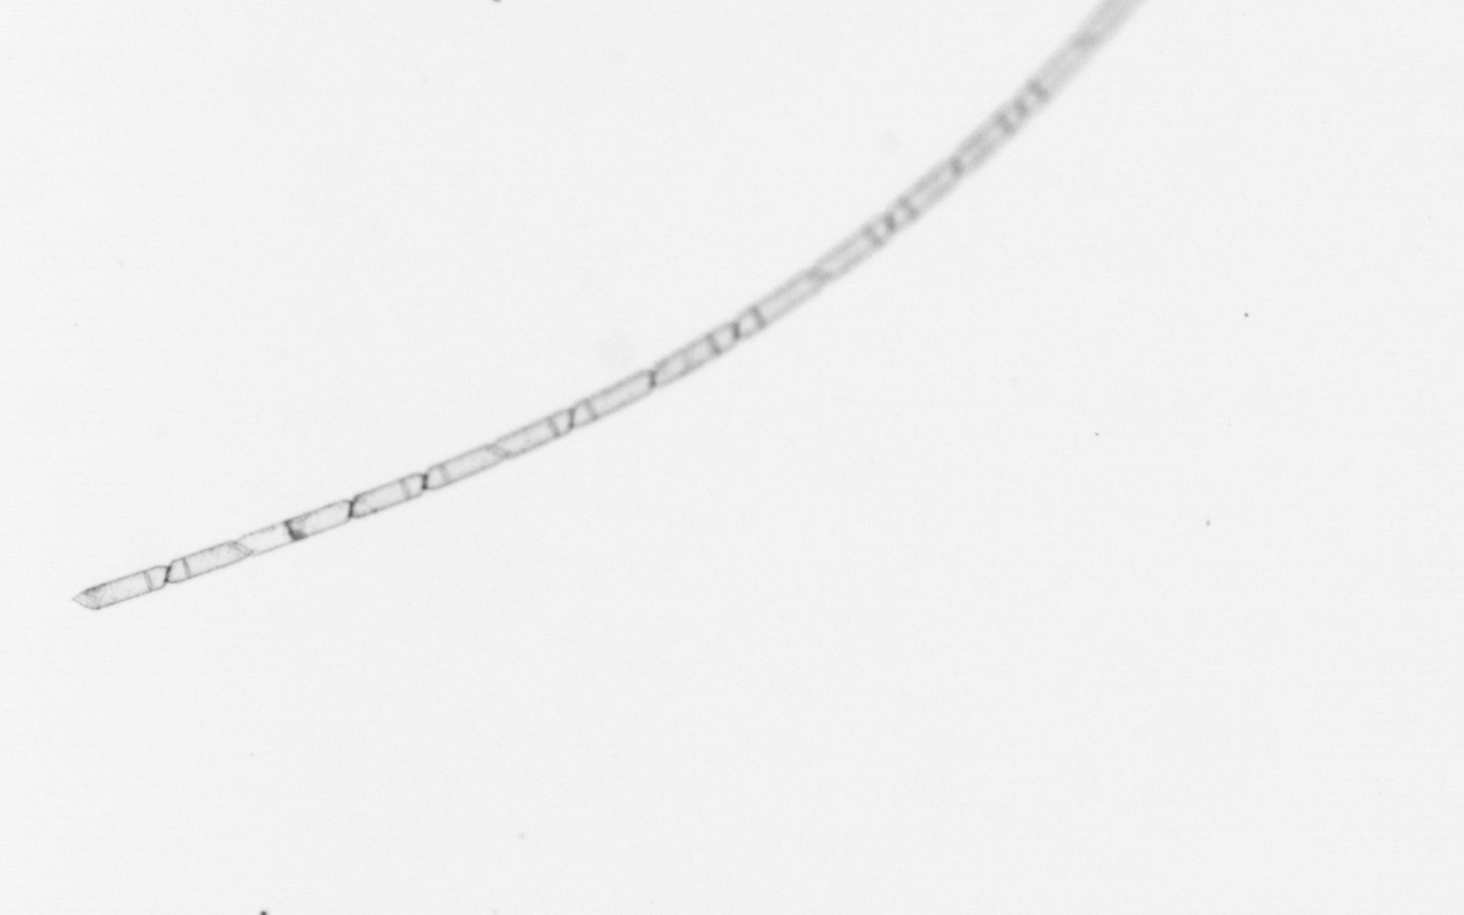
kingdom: Chromista
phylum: Ochrophyta
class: Bacillariophyceae
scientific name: Bacillariophyceae
